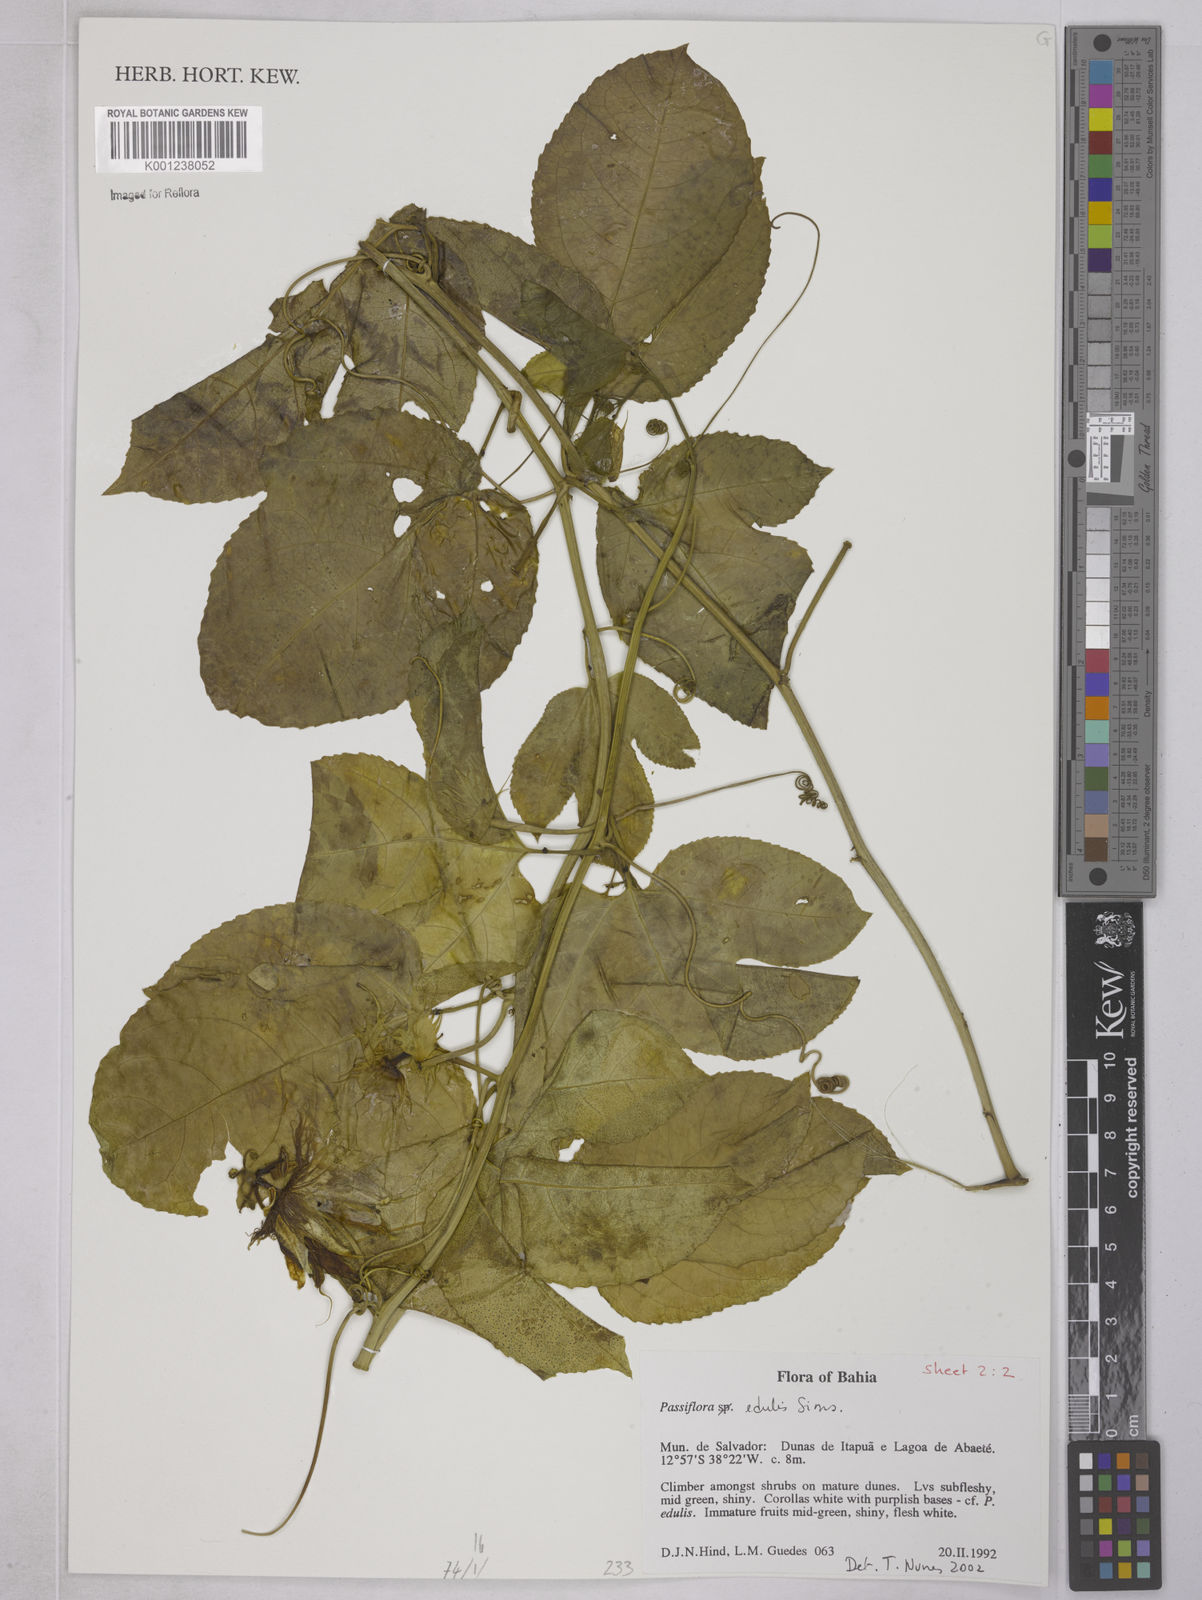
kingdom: Plantae
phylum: Tracheophyta
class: Magnoliopsida
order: Malpighiales
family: Passifloraceae
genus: Passiflora
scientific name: Passiflora edulis
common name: Purple granadilla
